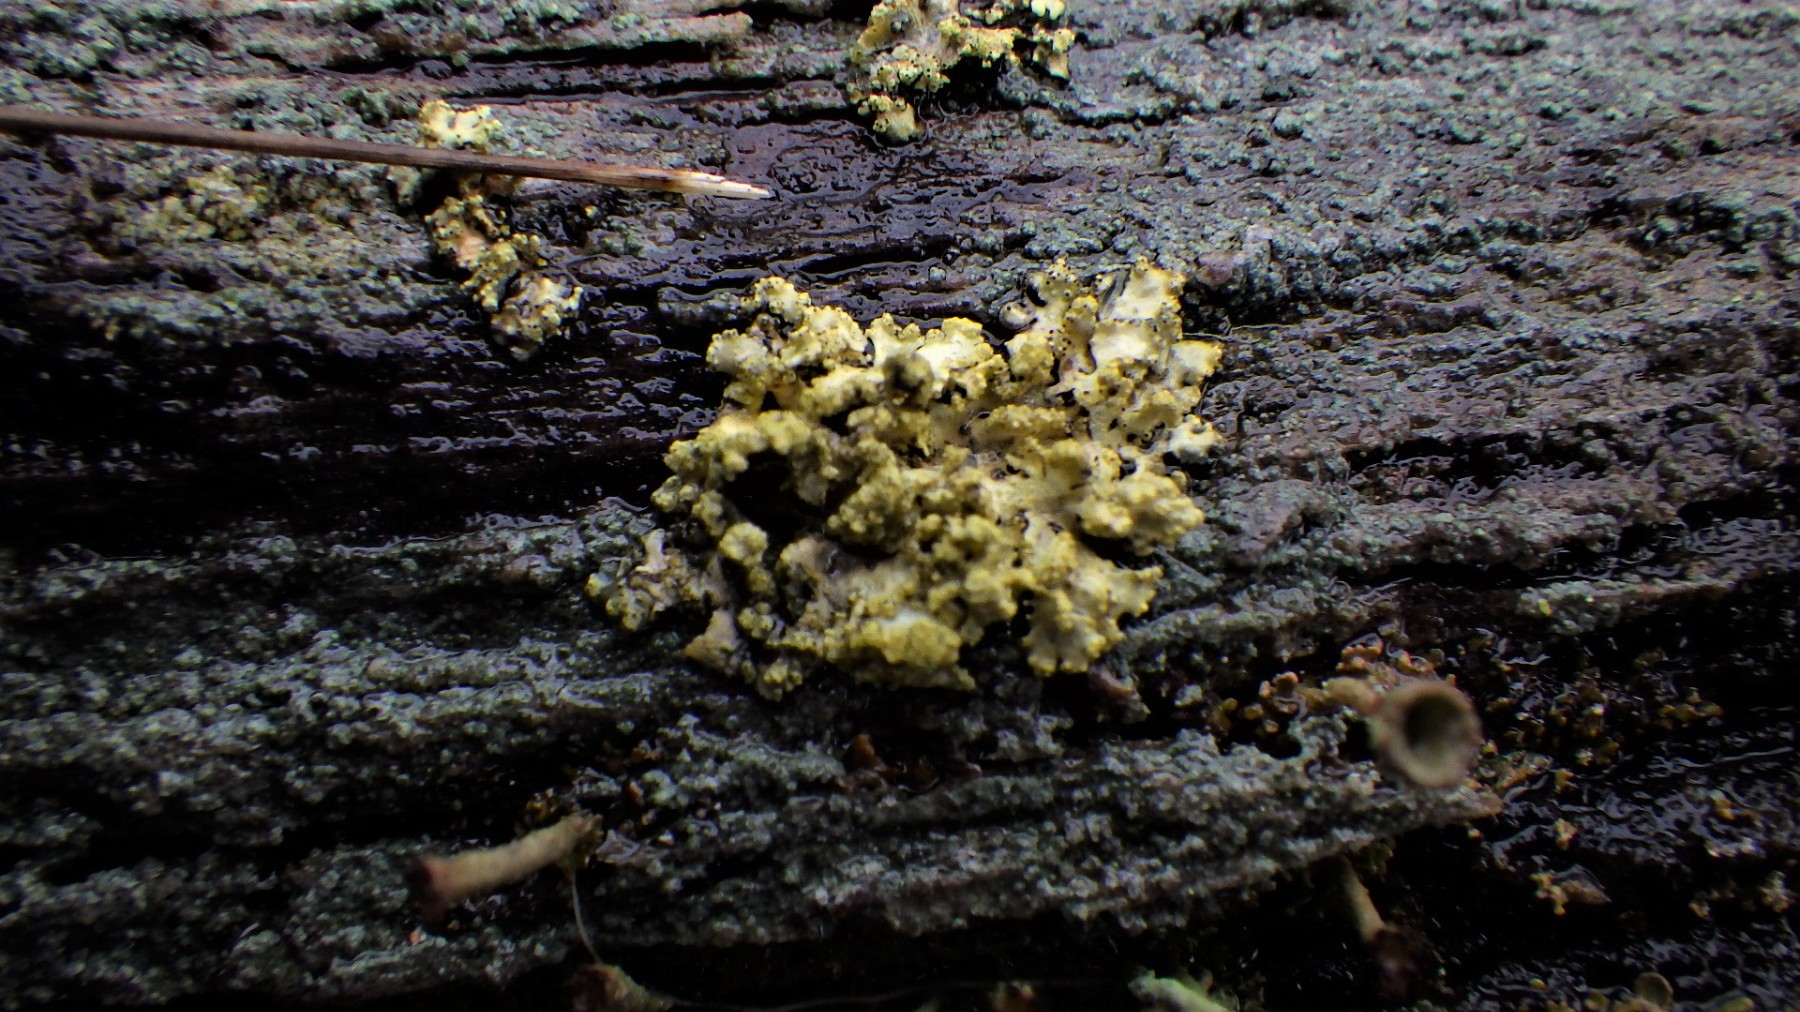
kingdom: Fungi
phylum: Ascomycota
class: Lecanoromycetes
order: Lecanorales
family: Parmeliaceae
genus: Vulpicida
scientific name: Vulpicida pinastri
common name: gul kruslav
